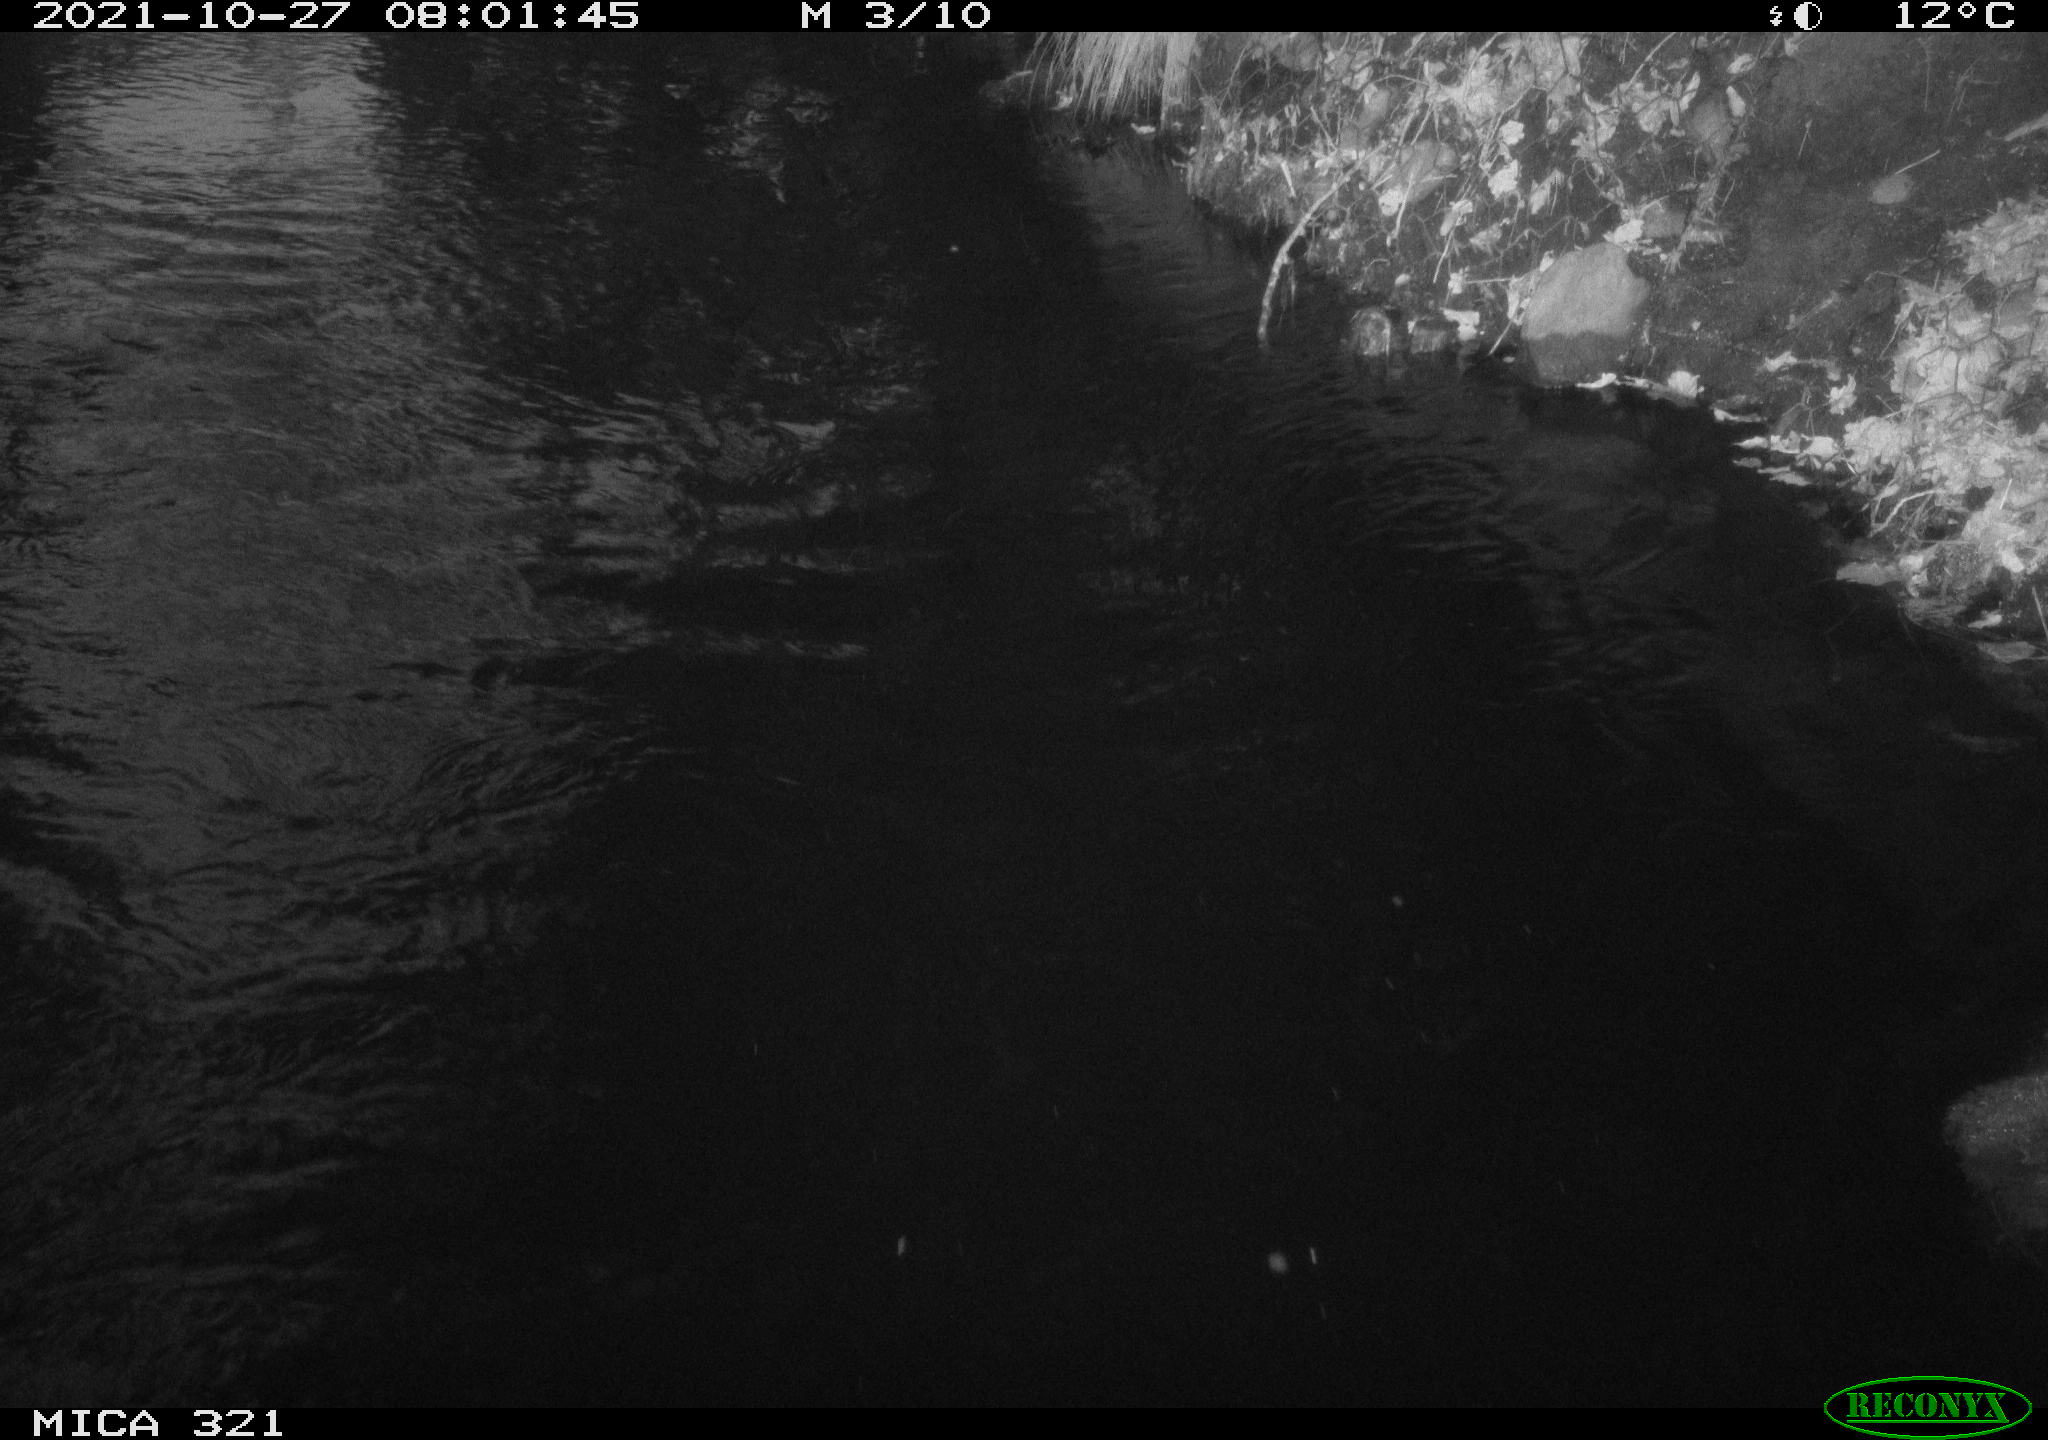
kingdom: Animalia
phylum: Chordata
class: Aves
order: Anseriformes
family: Anatidae
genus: Anas
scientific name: Anas platyrhynchos
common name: Mallard
